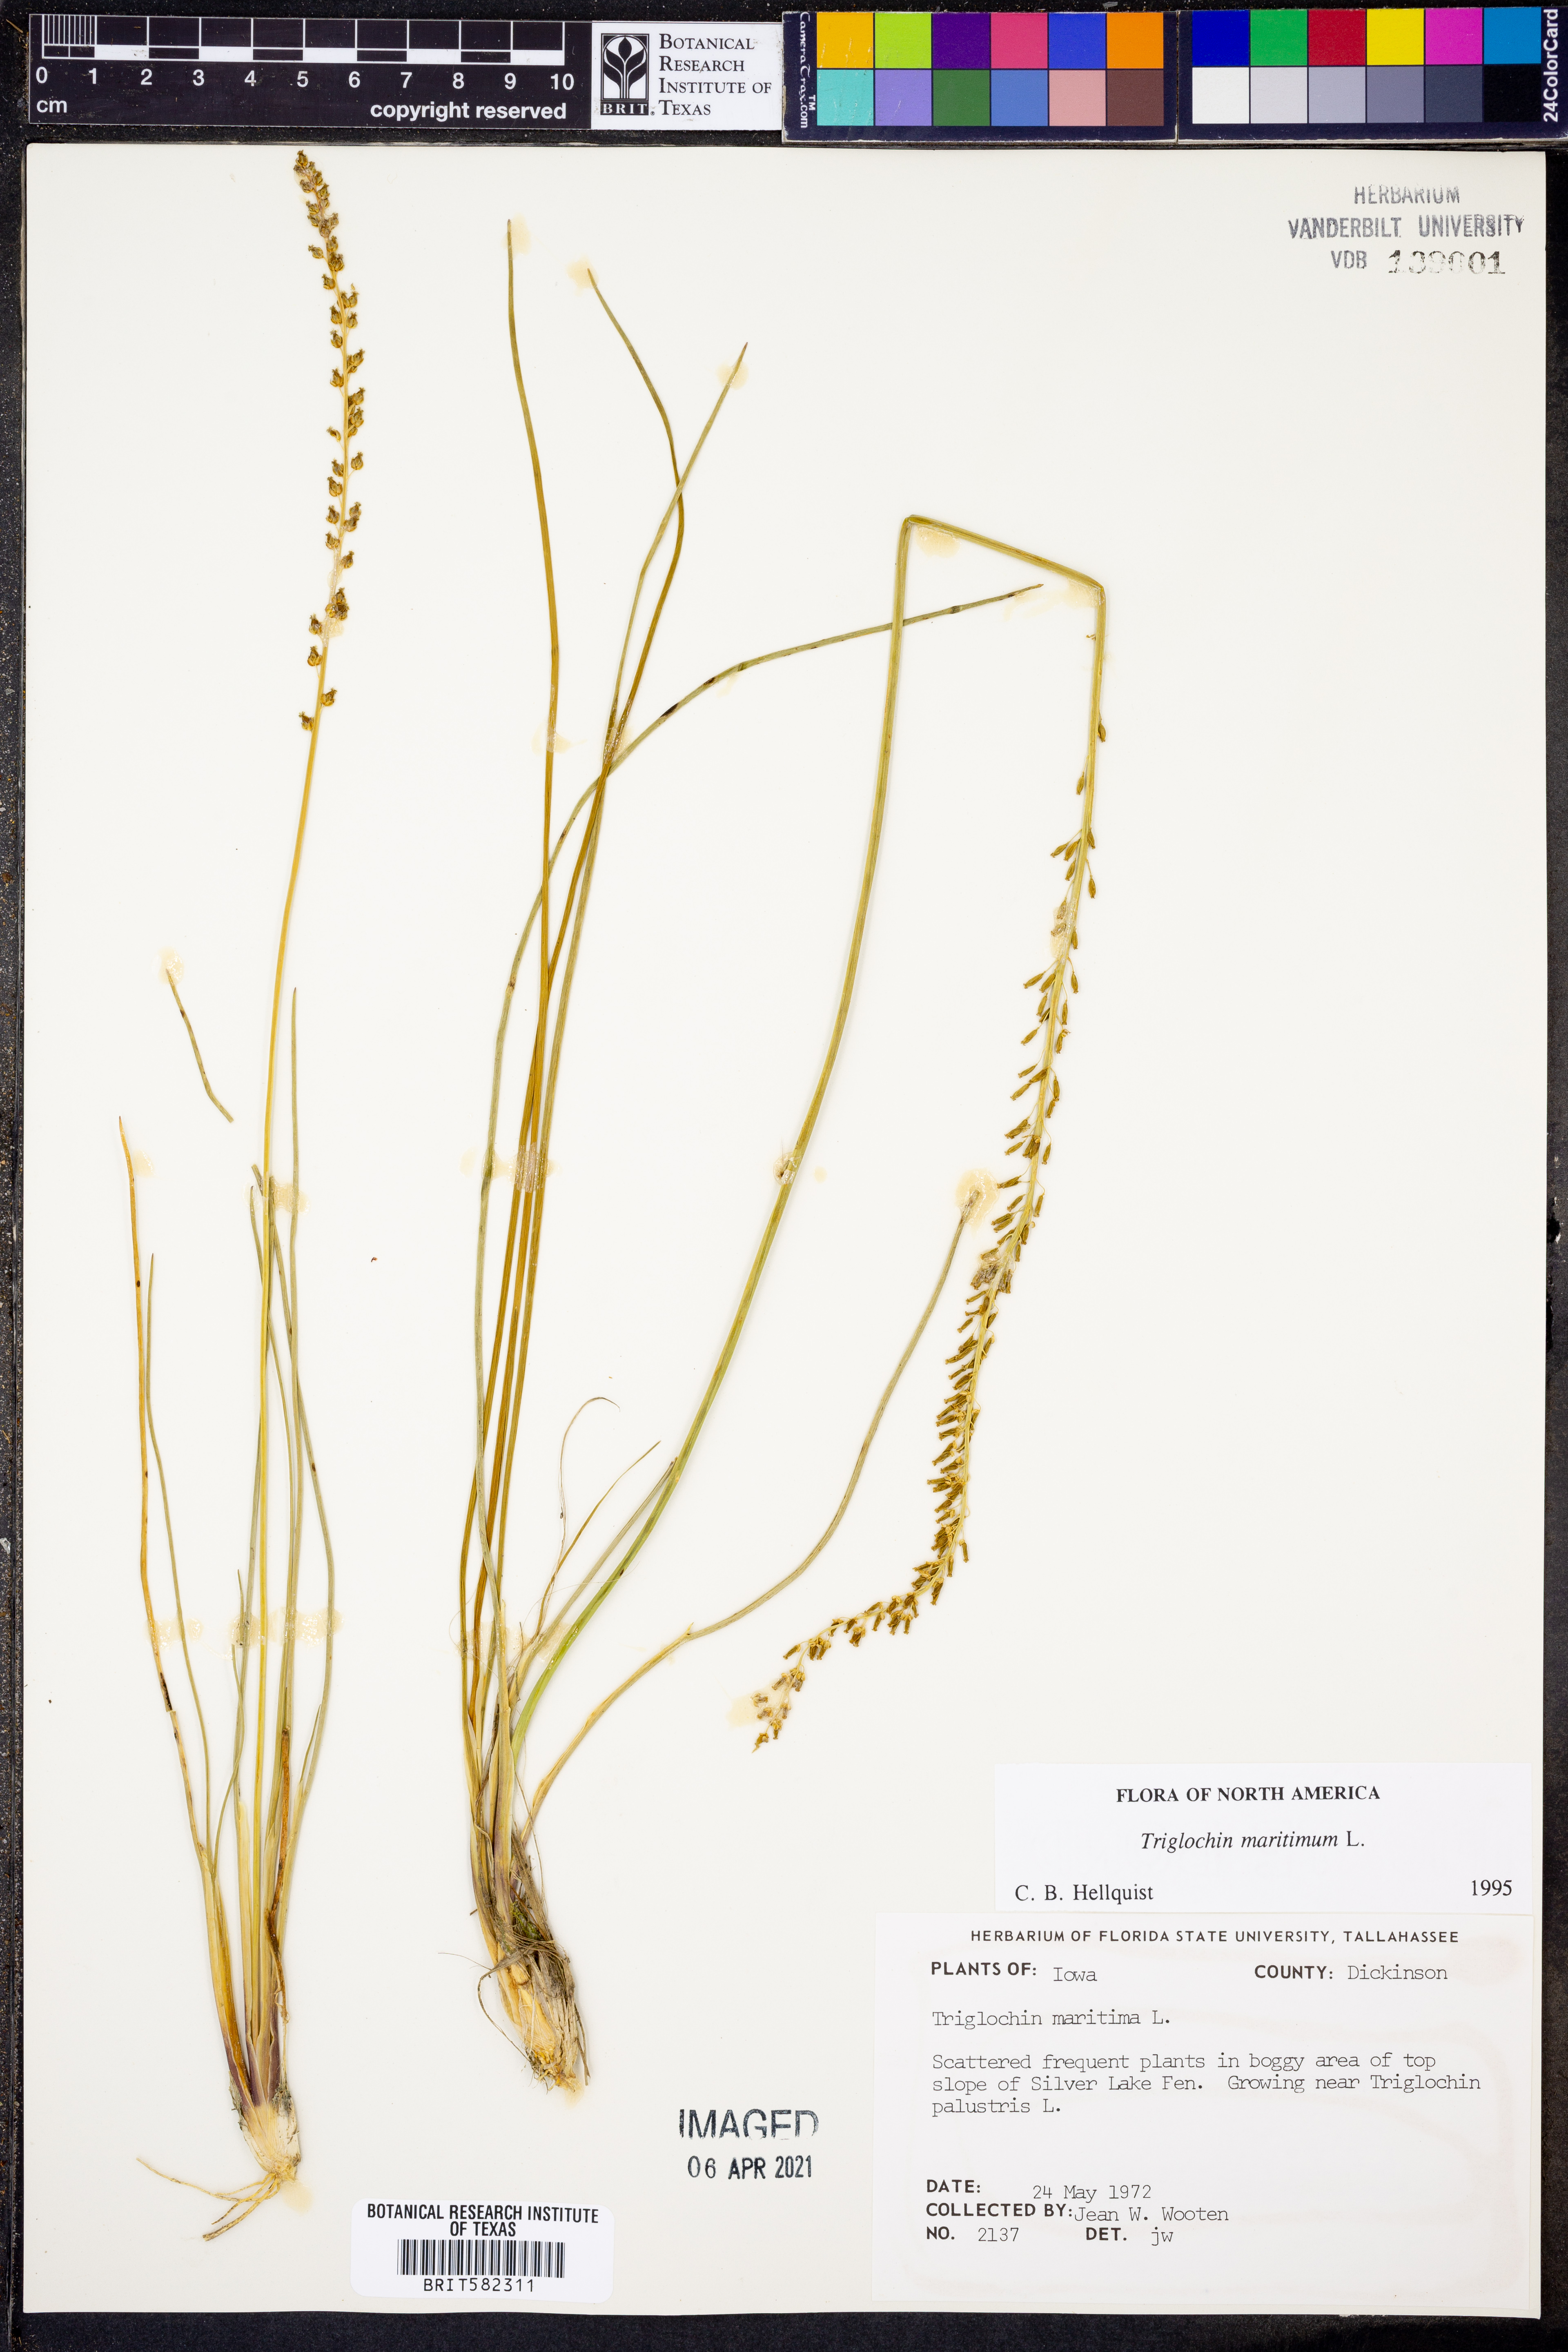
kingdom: Plantae
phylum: Tracheophyta
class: Liliopsida
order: Alismatales
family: Juncaginaceae
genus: Triglochin
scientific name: Triglochin maritima
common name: Sea arrowgrass
